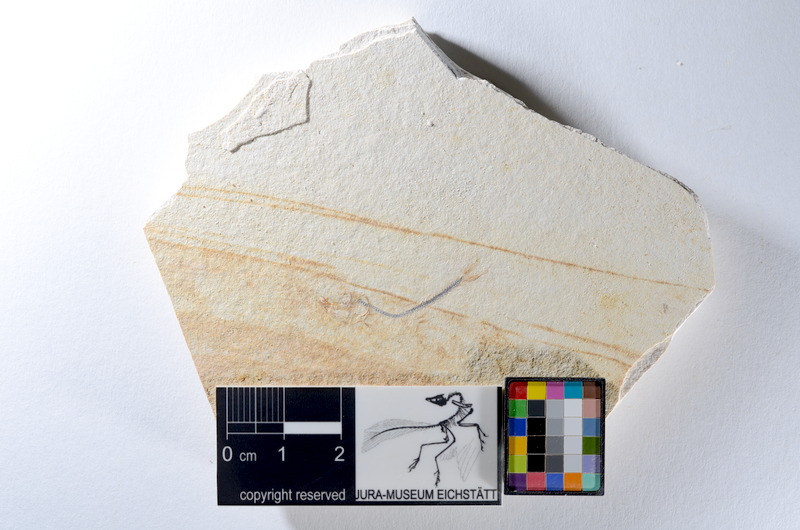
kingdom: Animalia
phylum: Chordata
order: Salmoniformes
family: Orthogonikleithridae
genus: Orthogonikleithrus
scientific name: Orthogonikleithrus hoelli
